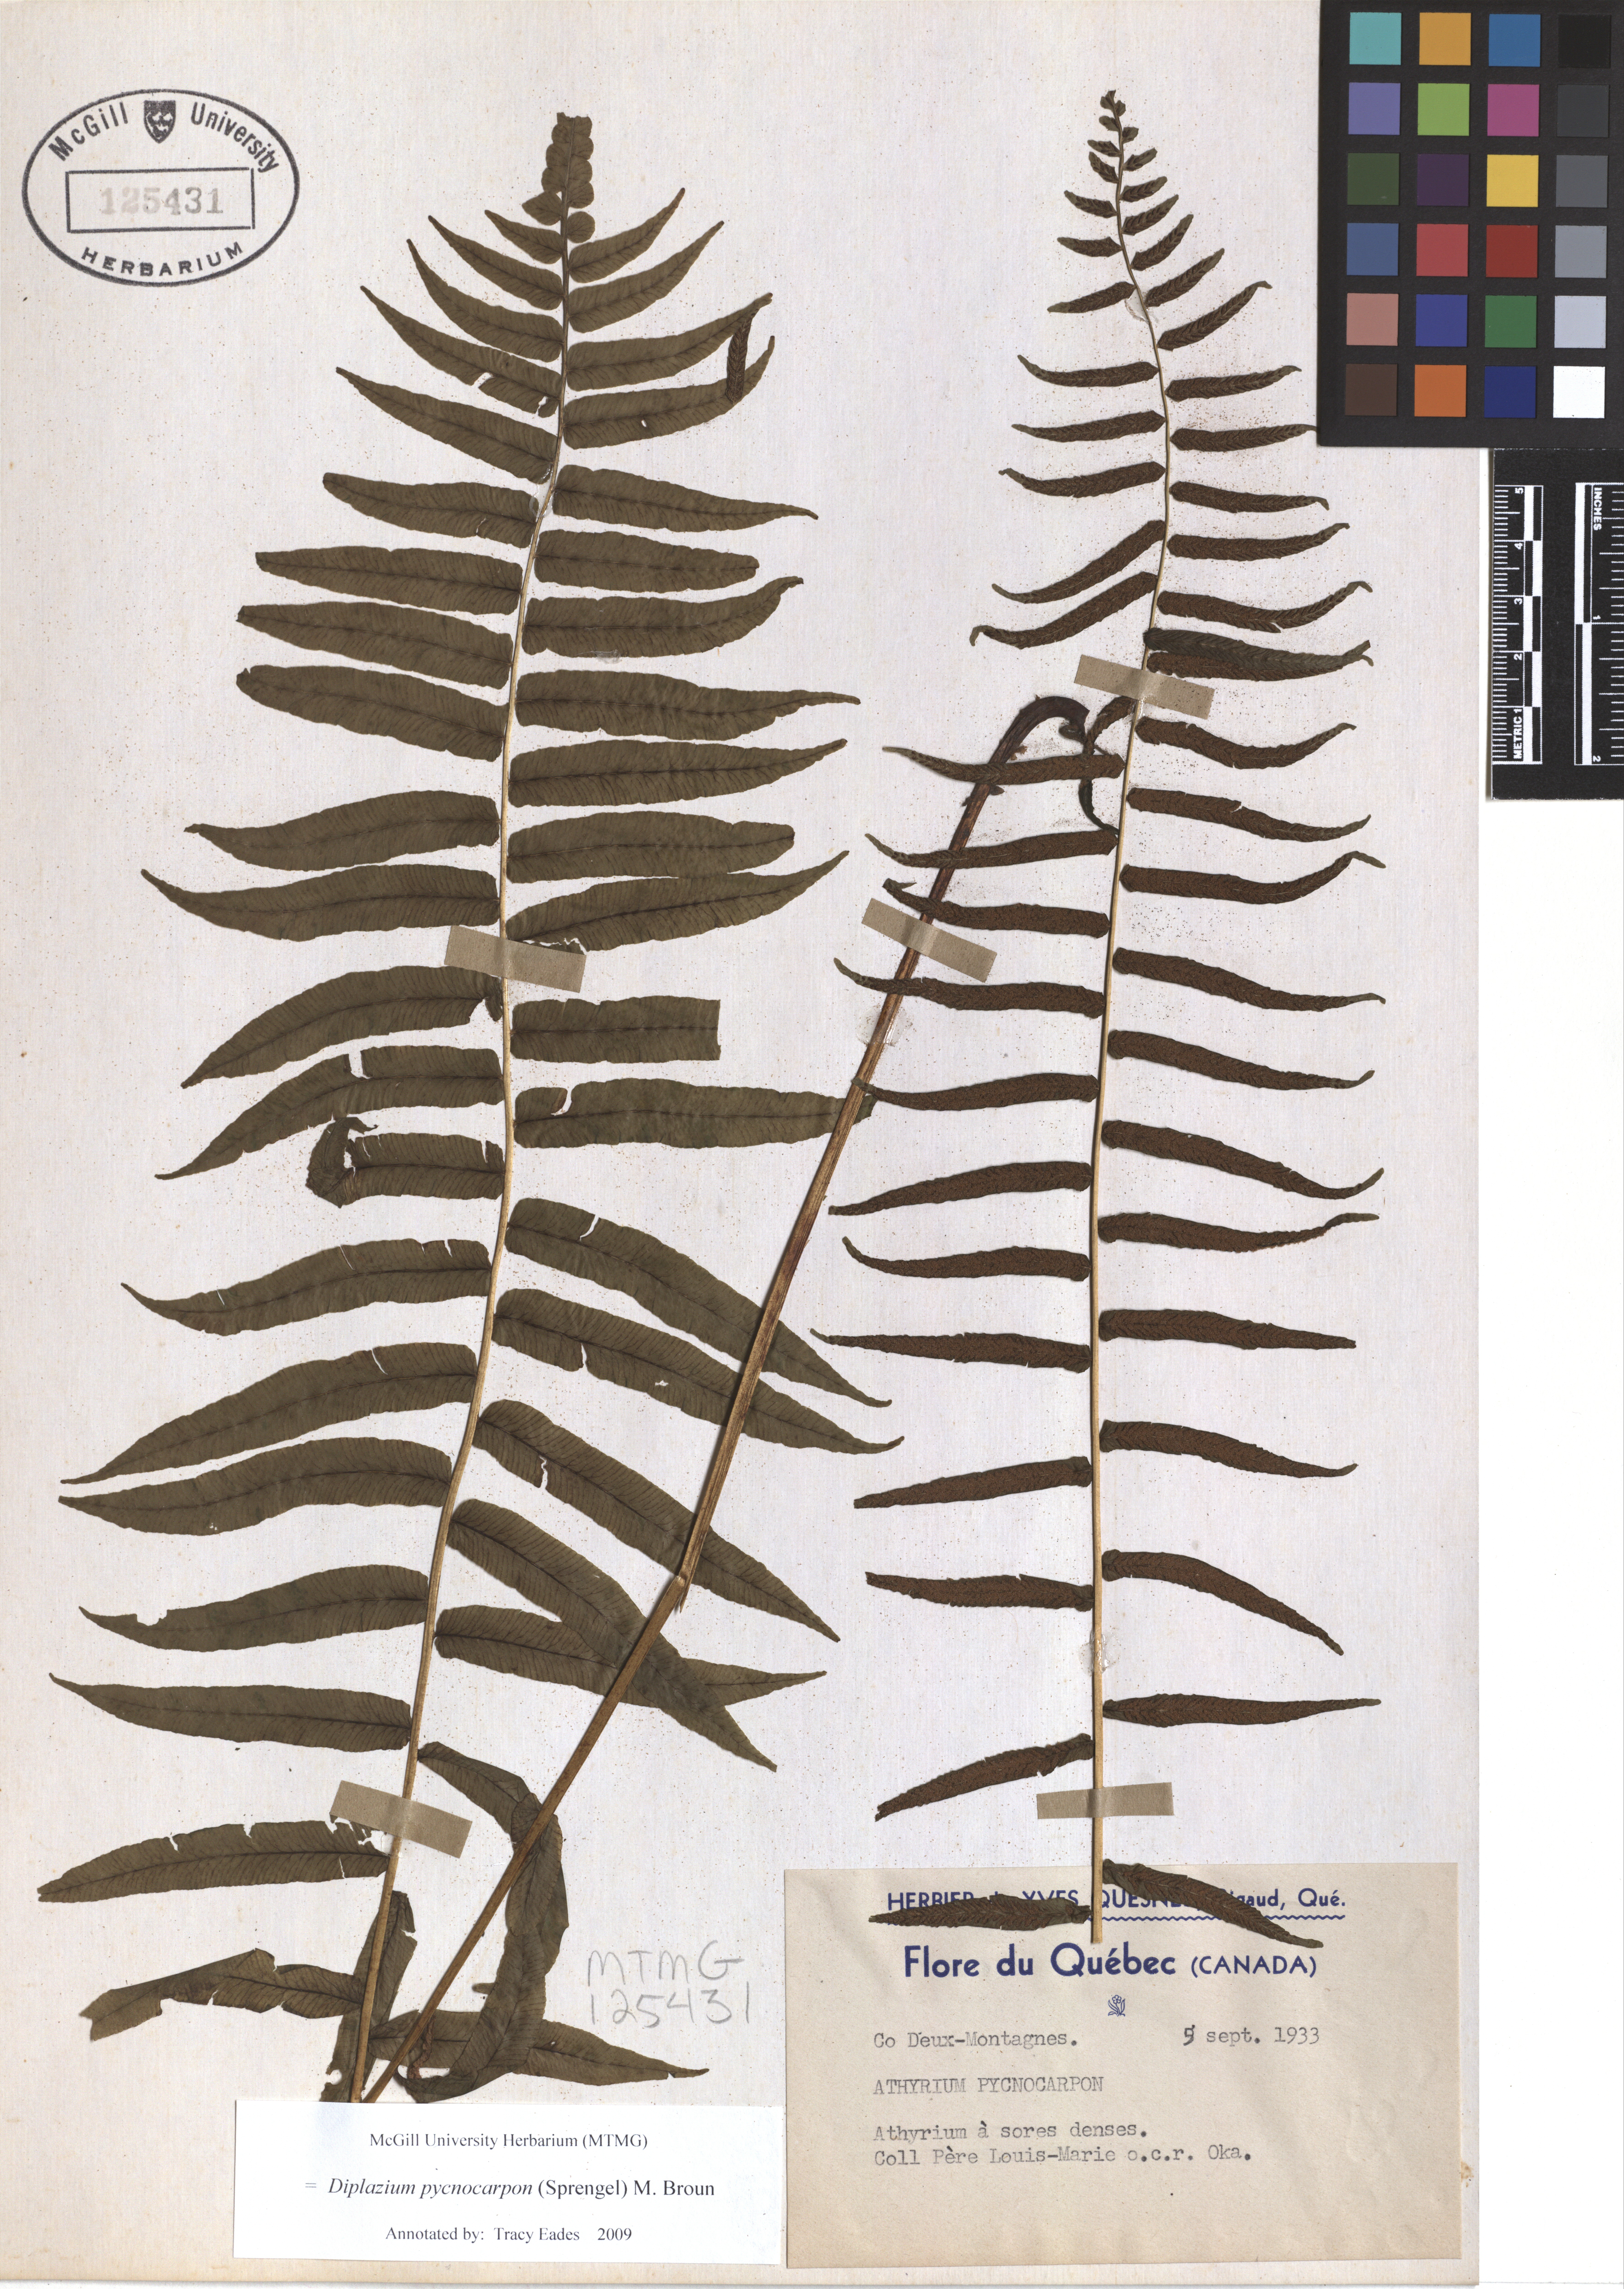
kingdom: Plantae
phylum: Tracheophyta
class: Polypodiopsida
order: Polypodiales
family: Diplaziopsidaceae
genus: Homalosorus
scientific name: Homalosorus pycnocarpos
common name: Glade fern
